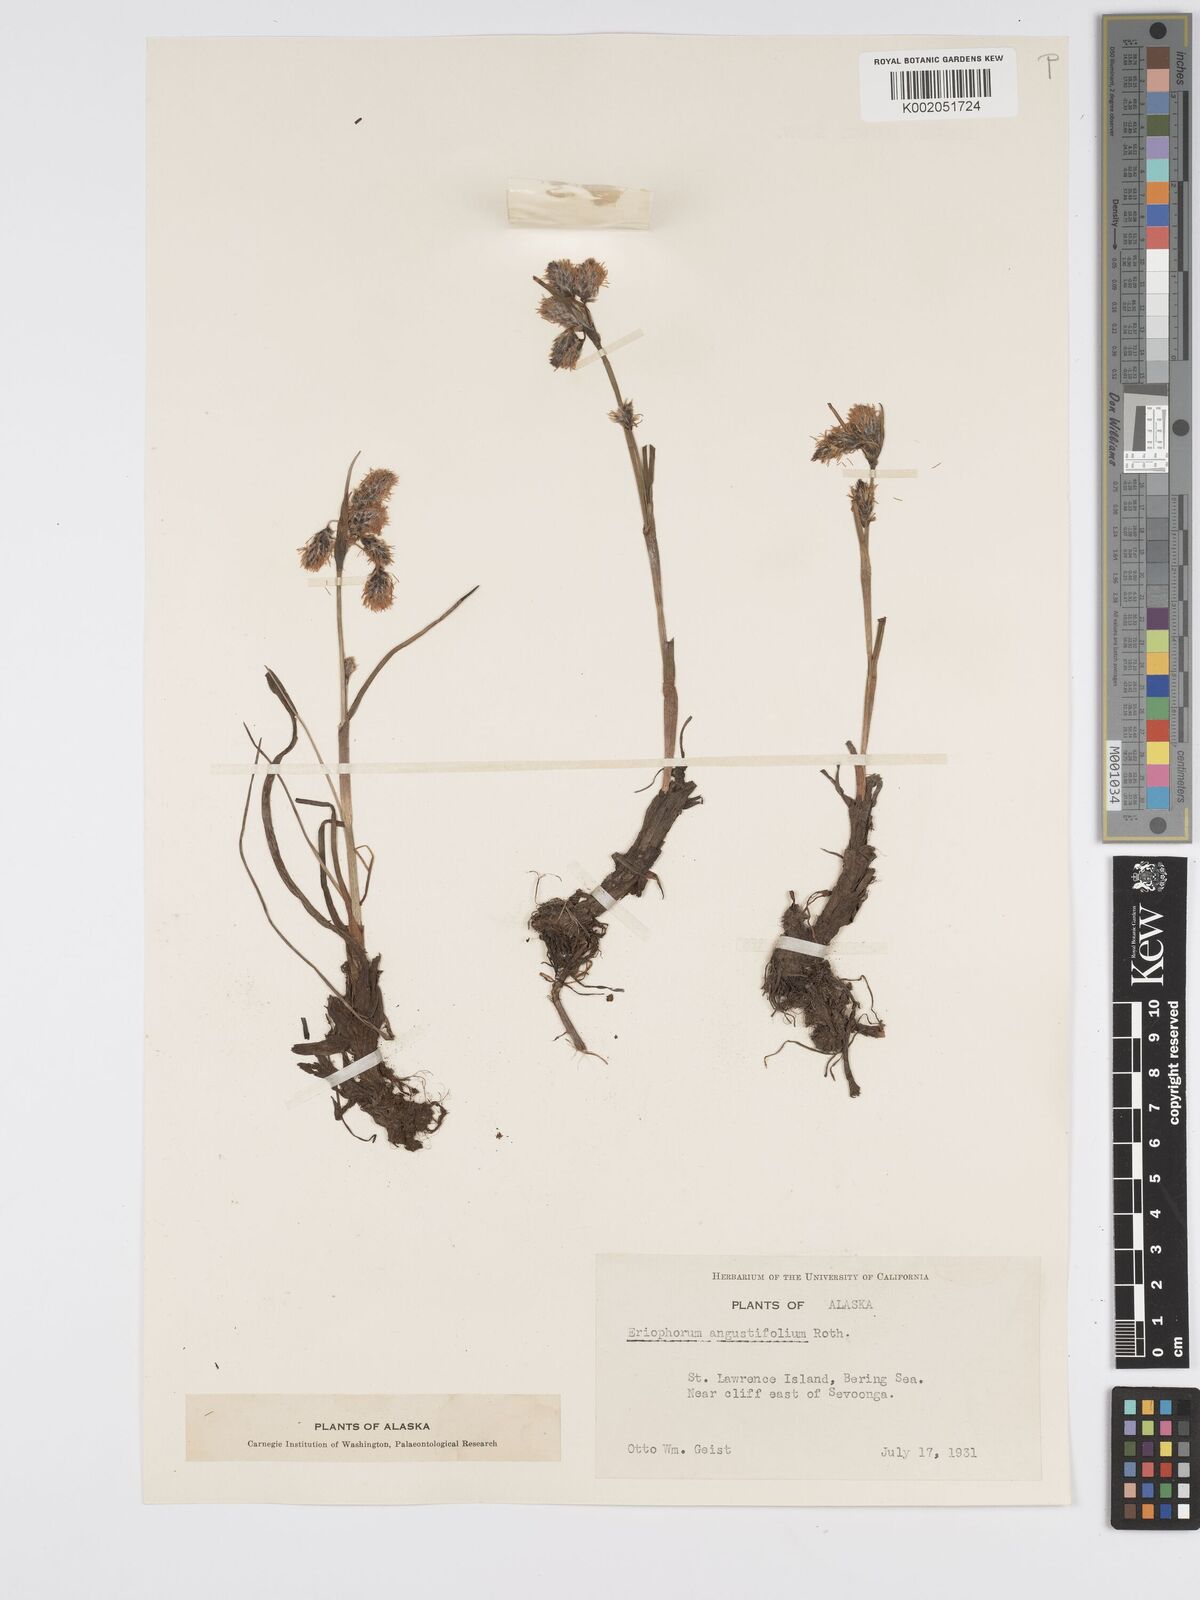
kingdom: Plantae
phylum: Tracheophyta
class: Liliopsida
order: Poales
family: Cyperaceae
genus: Eriophorum
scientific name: Eriophorum angustifolium
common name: Common cottongrass
